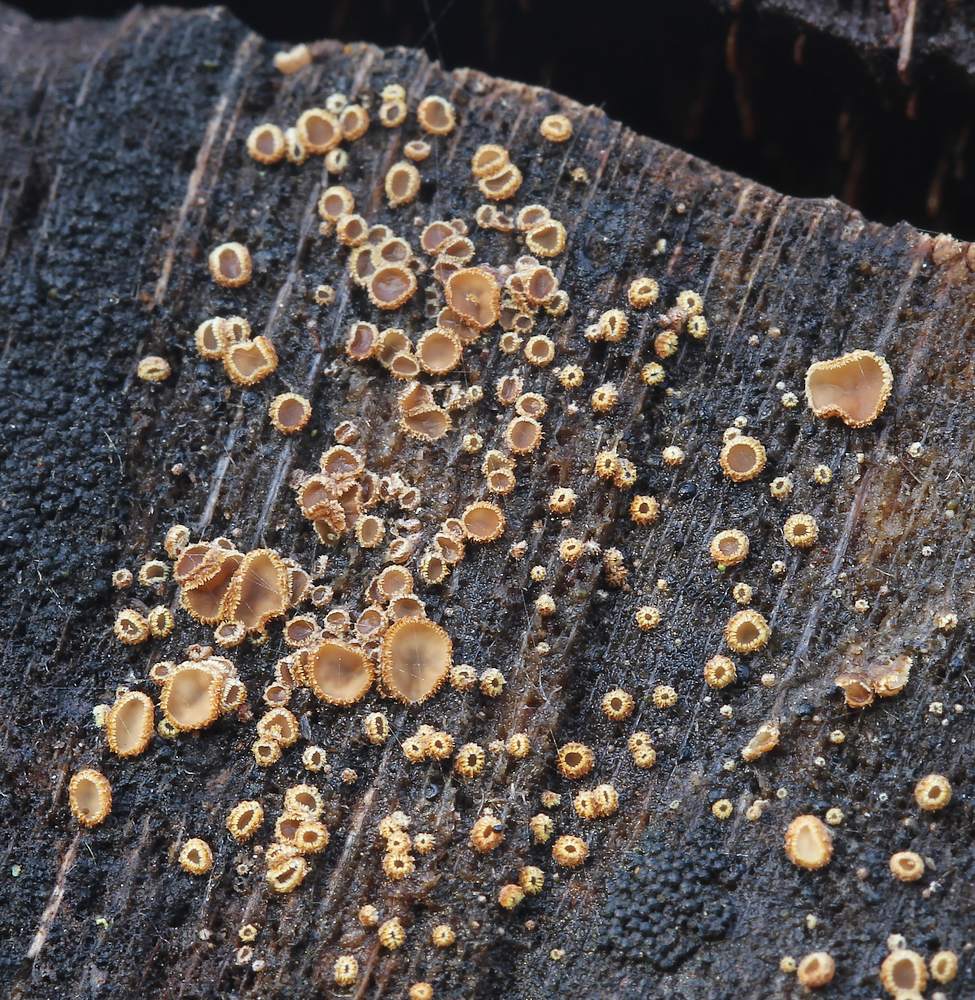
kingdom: Fungi
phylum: Ascomycota
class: Leotiomycetes
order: Helotiales
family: Lachnaceae
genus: Trichopeziza
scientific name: Trichopeziza subsulphurea
